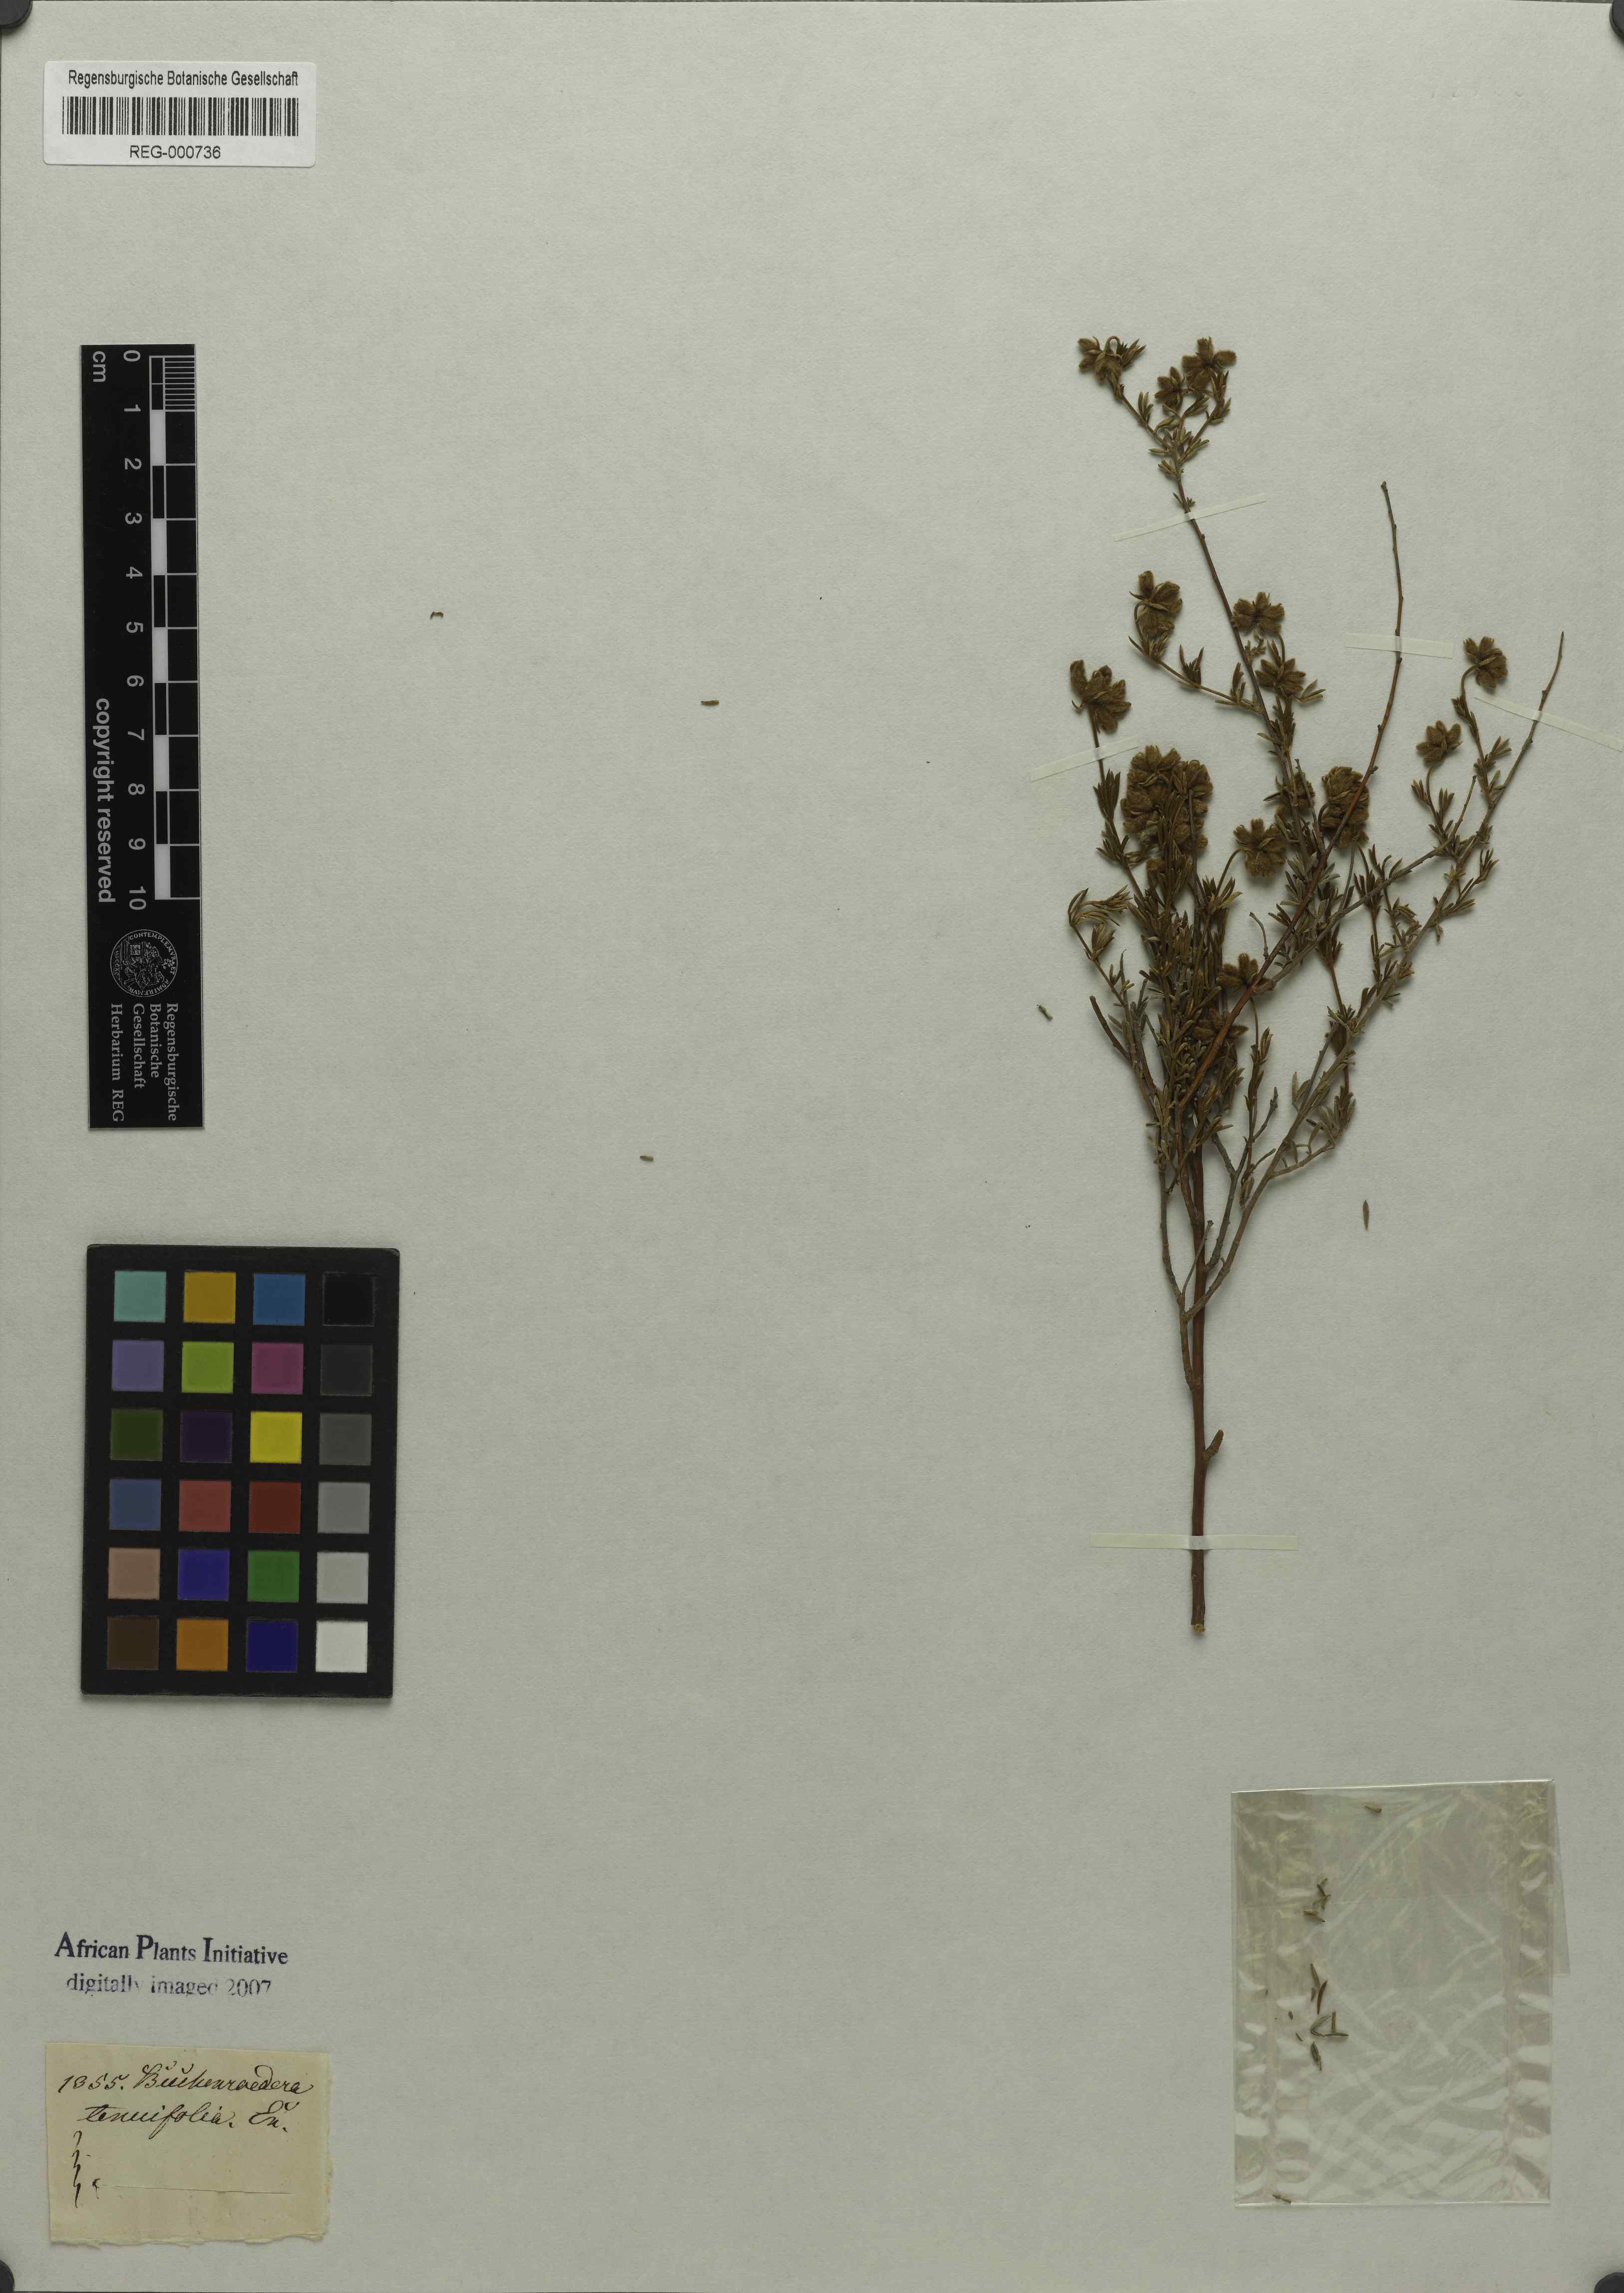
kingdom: Plantae
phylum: Tracheophyta
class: Magnoliopsida
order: Fabales
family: Fabaceae
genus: Lotononis
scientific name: Lotononis pulchella
